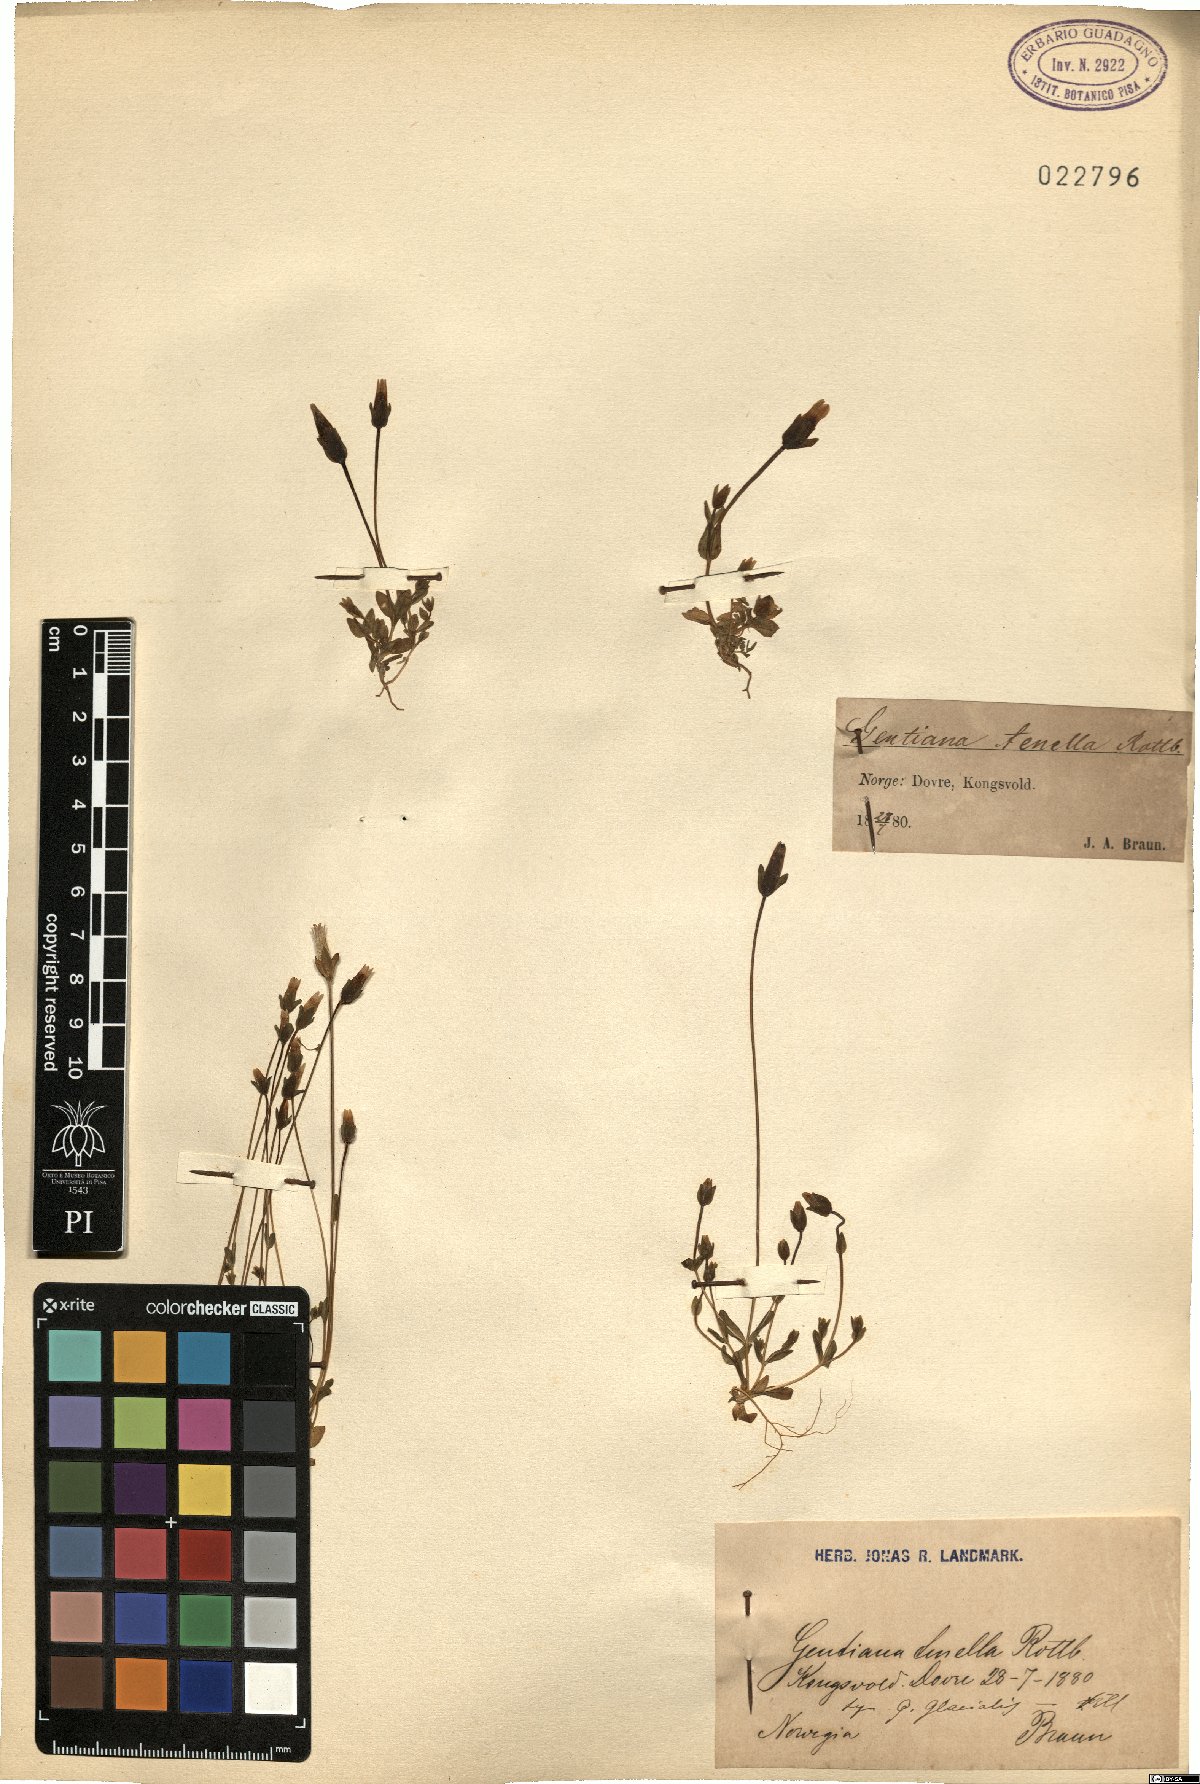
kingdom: Plantae
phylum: Tracheophyta
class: Magnoliopsida
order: Gentianales
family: Gentianaceae
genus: Comastoma
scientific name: Comastoma tenellum
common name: Dane's dwarf gentian
